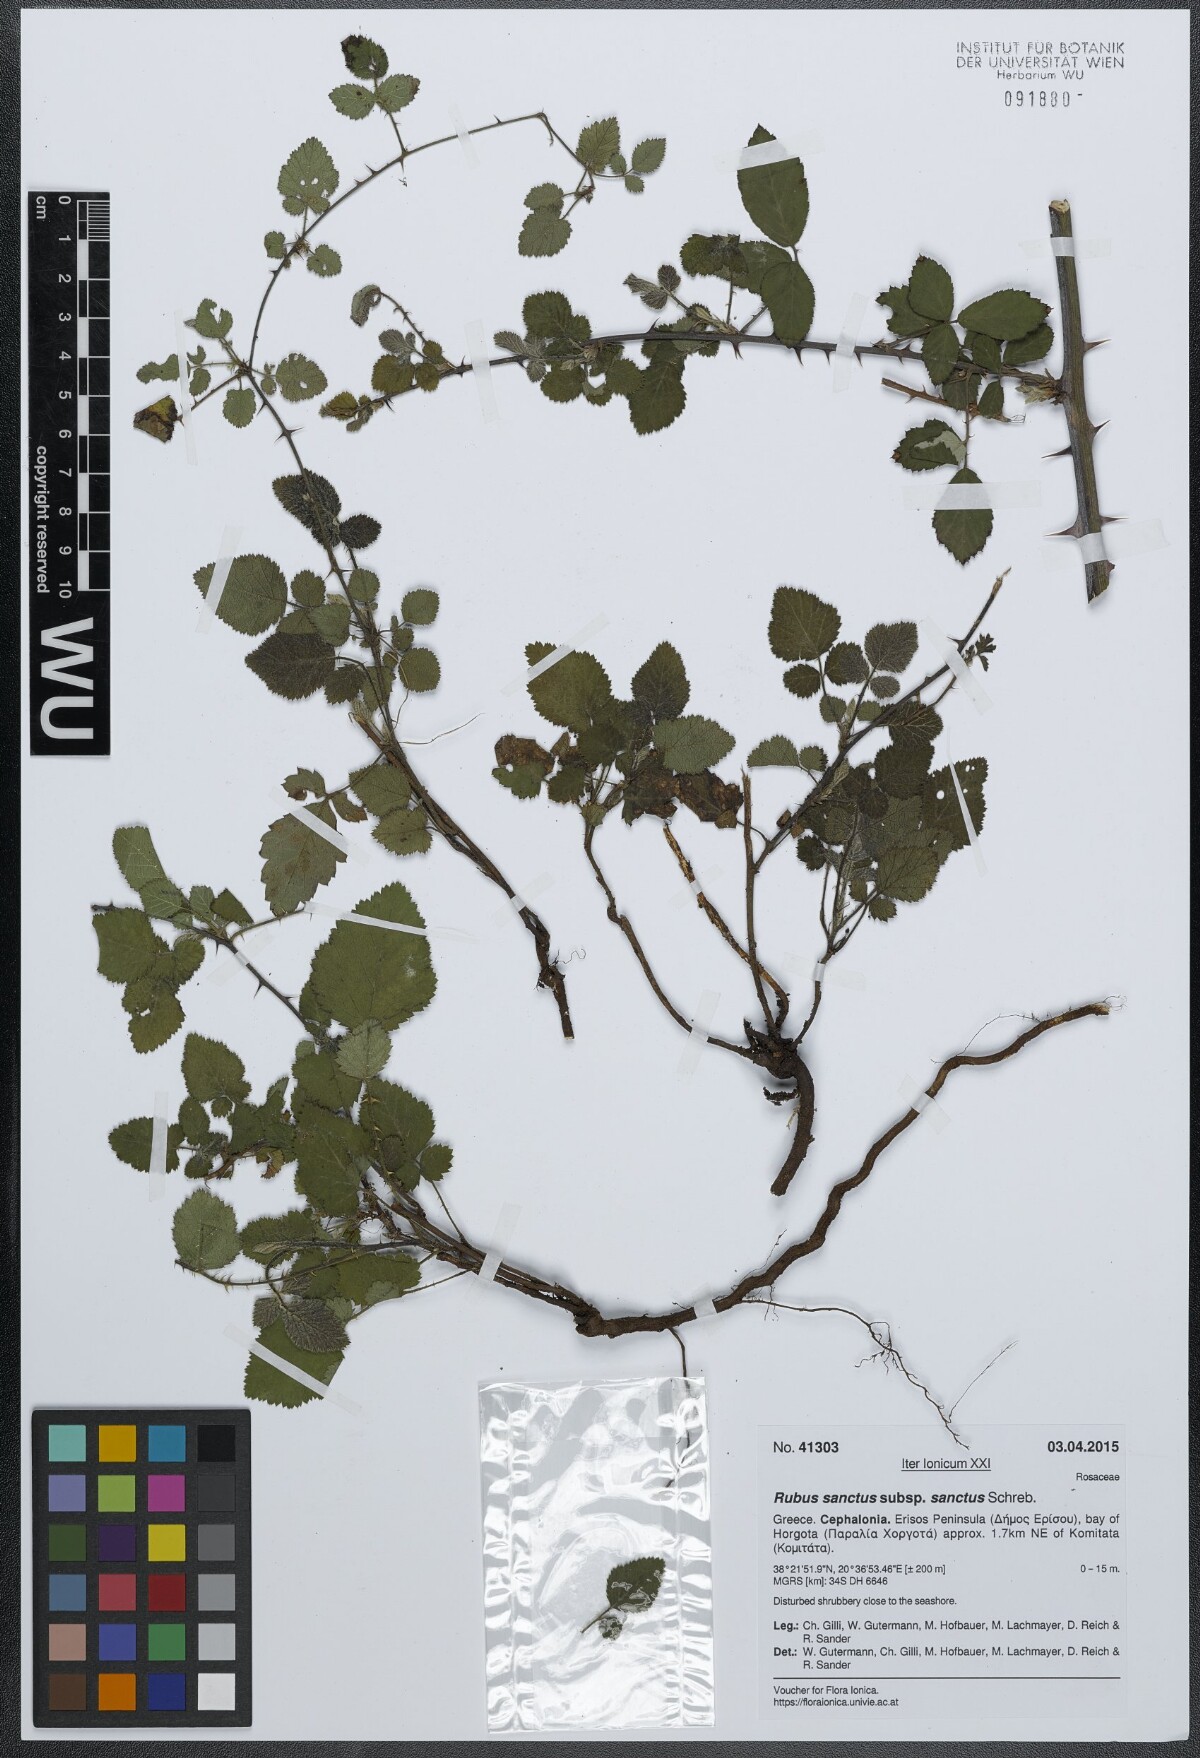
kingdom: Plantae
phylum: Tracheophyta
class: Magnoliopsida
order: Rosales
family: Rosaceae
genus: Rubus
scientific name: Rubus sanctus
